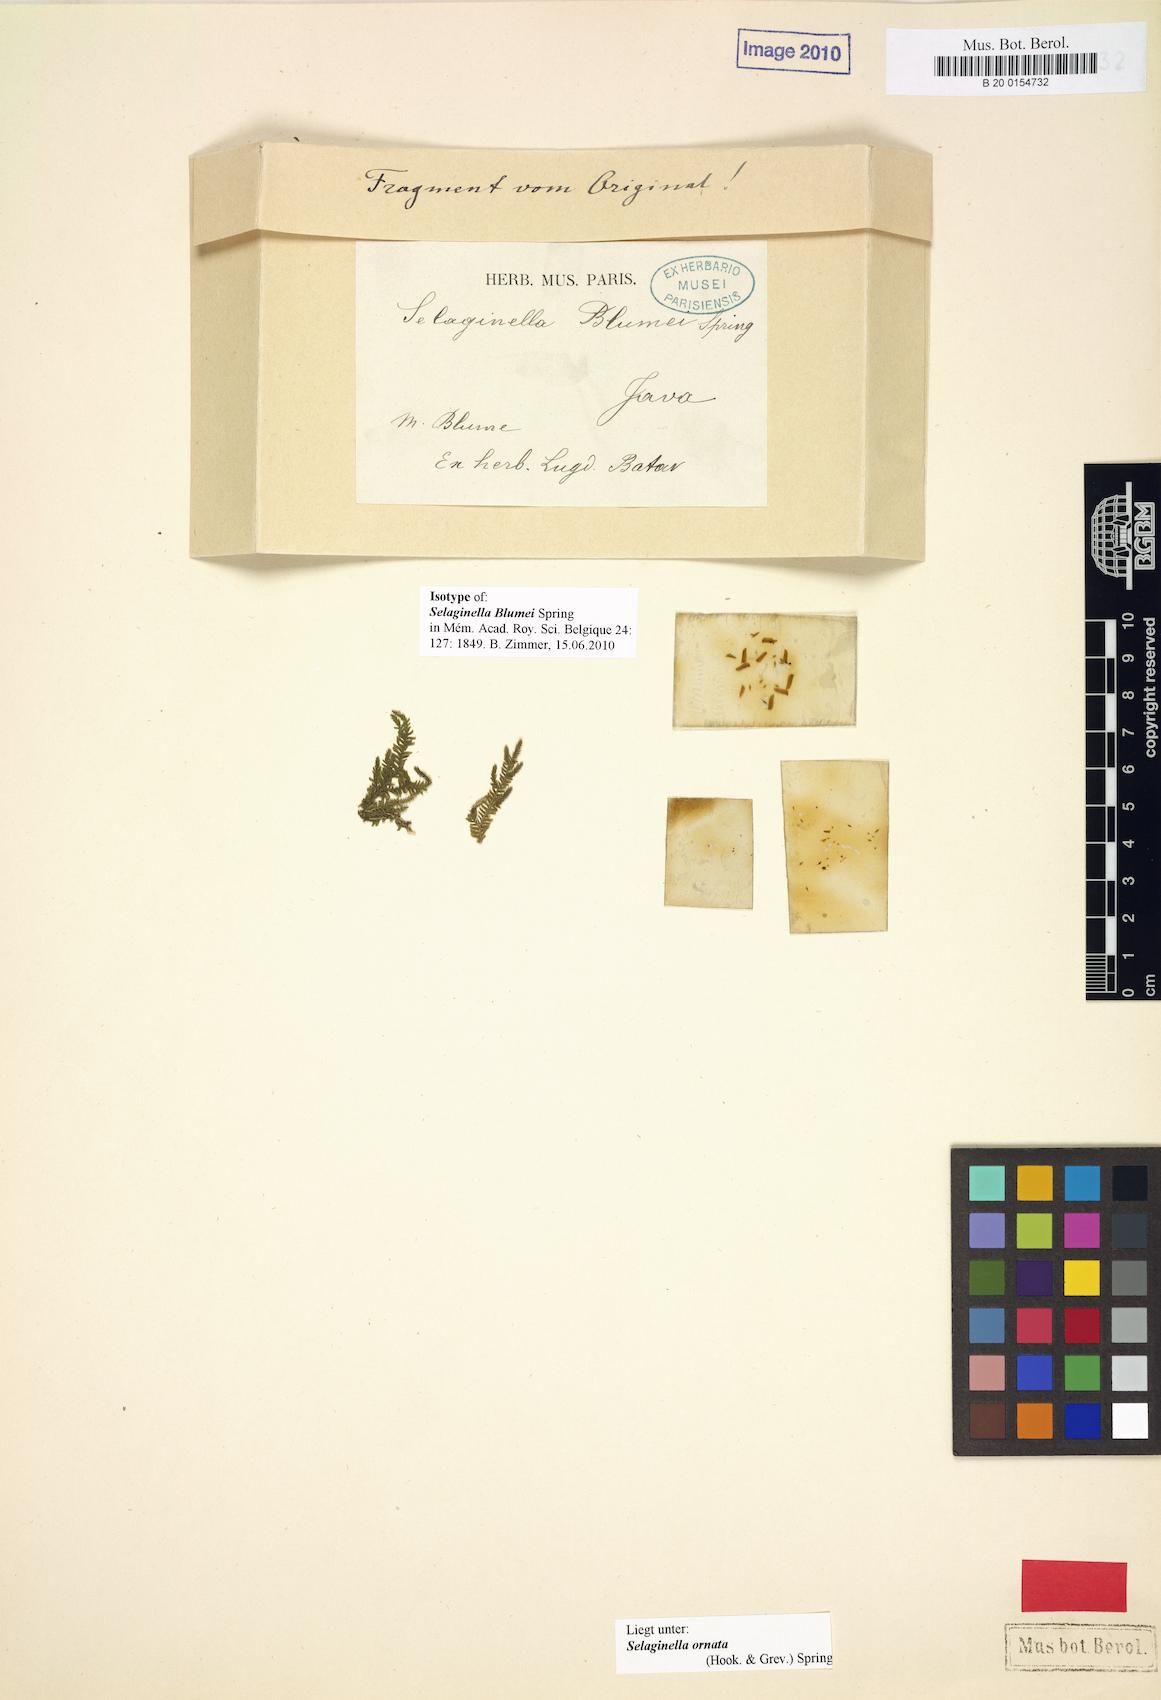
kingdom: Plantae
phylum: Tracheophyta
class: Lycopodiopsida
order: Selaginellales
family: Selaginellaceae
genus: Selaginella
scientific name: Selaginella ornata
